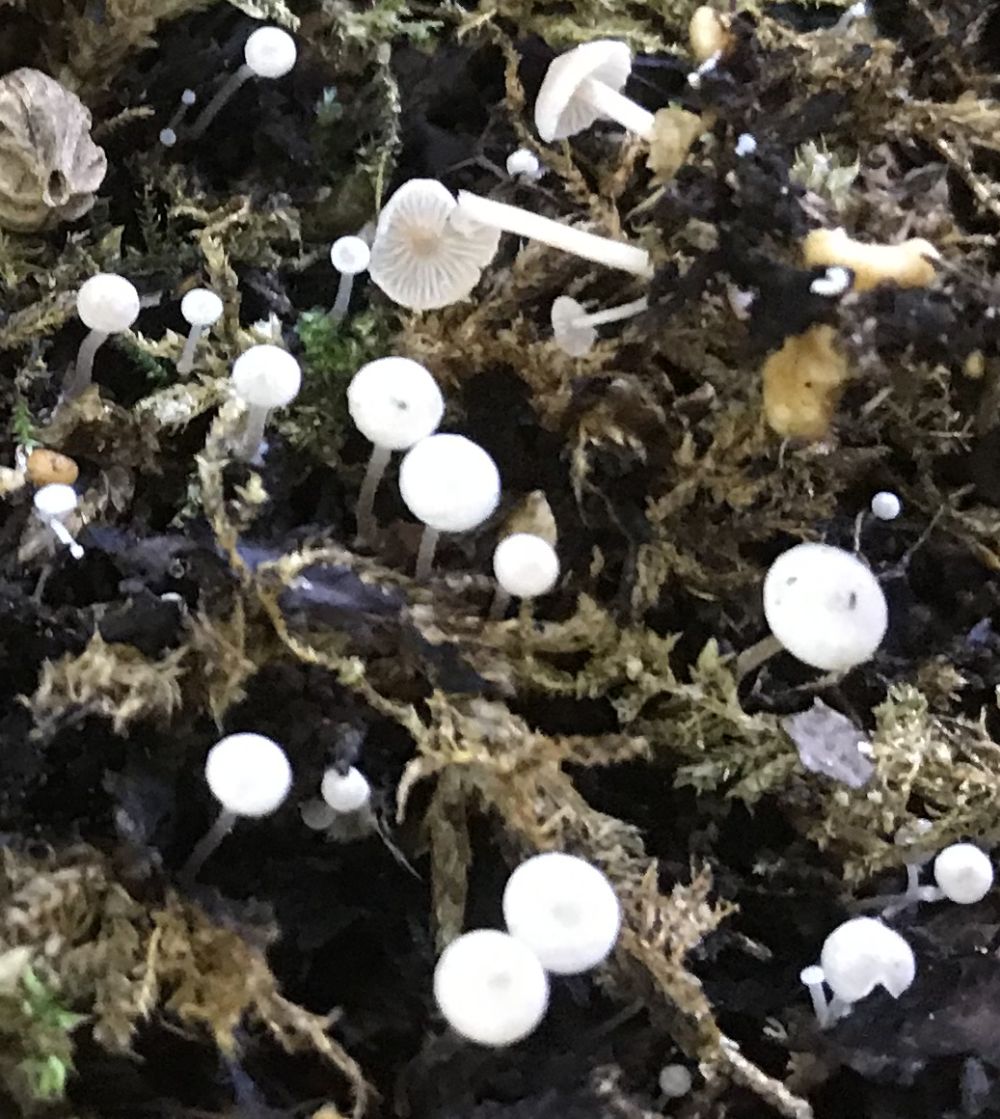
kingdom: Fungi
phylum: Basidiomycota
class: Agaricomycetes
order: Agaricales
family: Tricholomataceae
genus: Collybia
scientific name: Collybia cookei
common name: gulknoldet lighat
